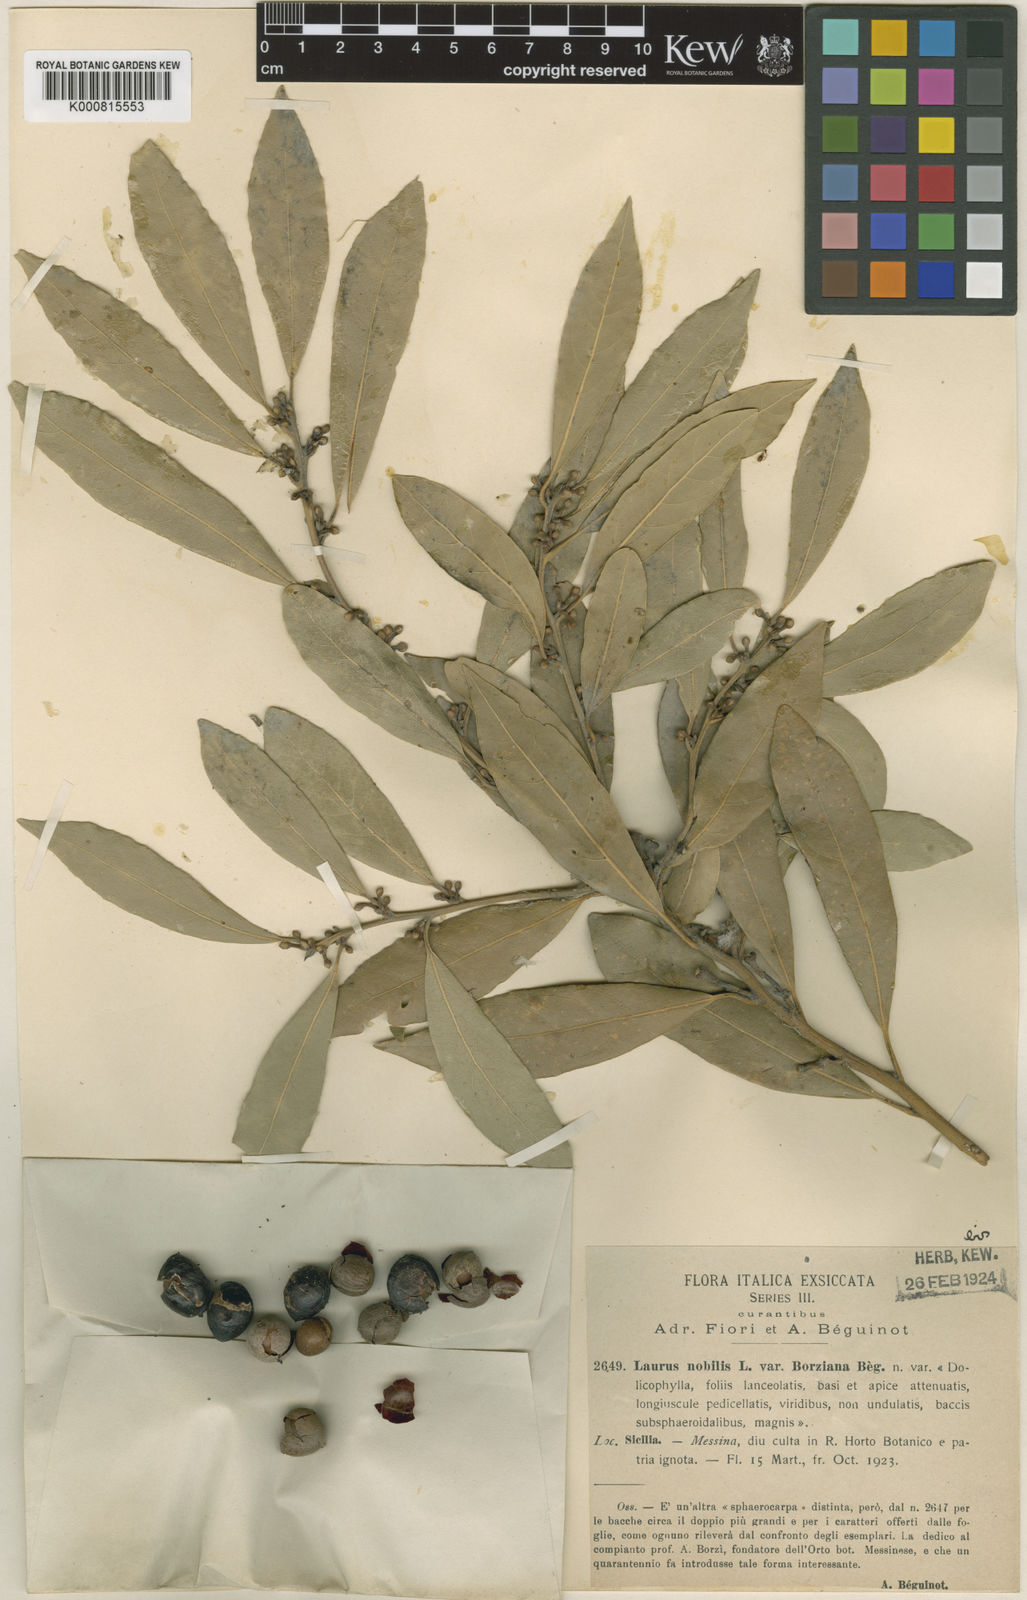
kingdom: Plantae
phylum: Tracheophyta
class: Magnoliopsida
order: Laurales
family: Lauraceae
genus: Laurus
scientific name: Laurus nobilis
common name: Bay
